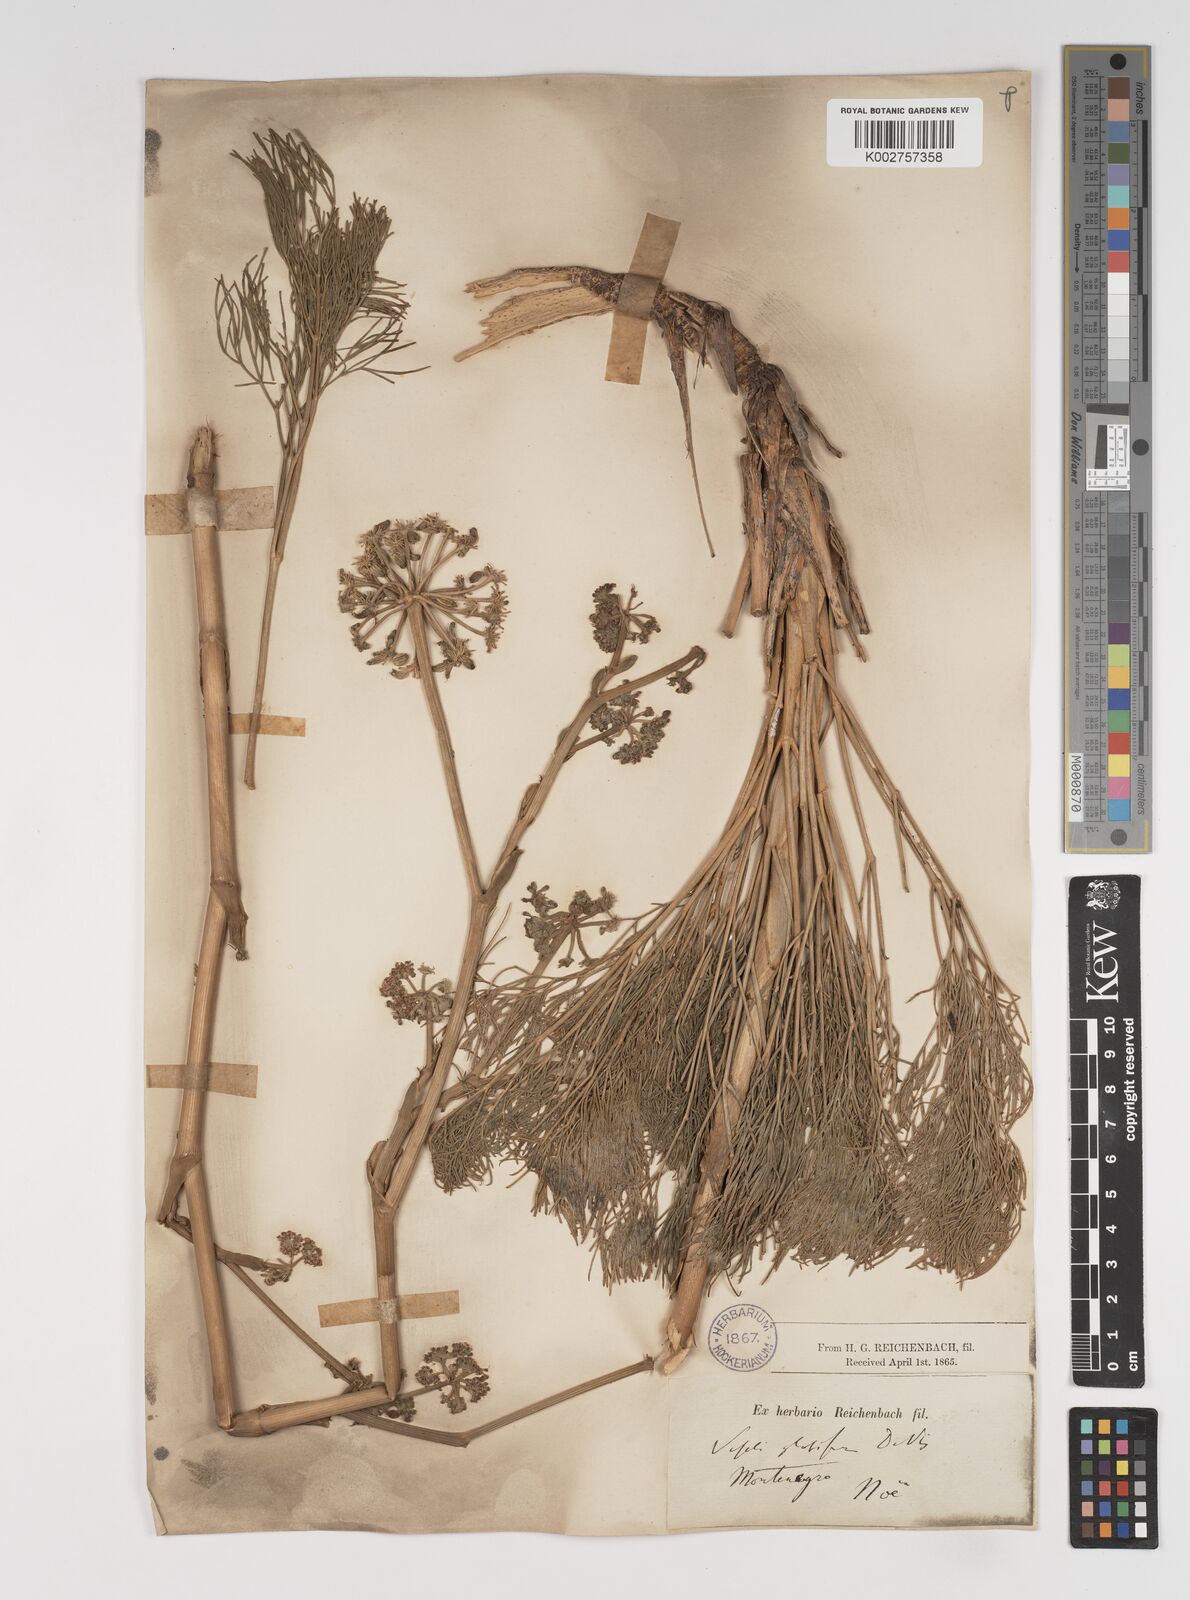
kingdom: Plantae
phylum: Tracheophyta
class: Magnoliopsida
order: Apiales
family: Apiaceae
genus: Seseli
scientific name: Seseli globiferum
